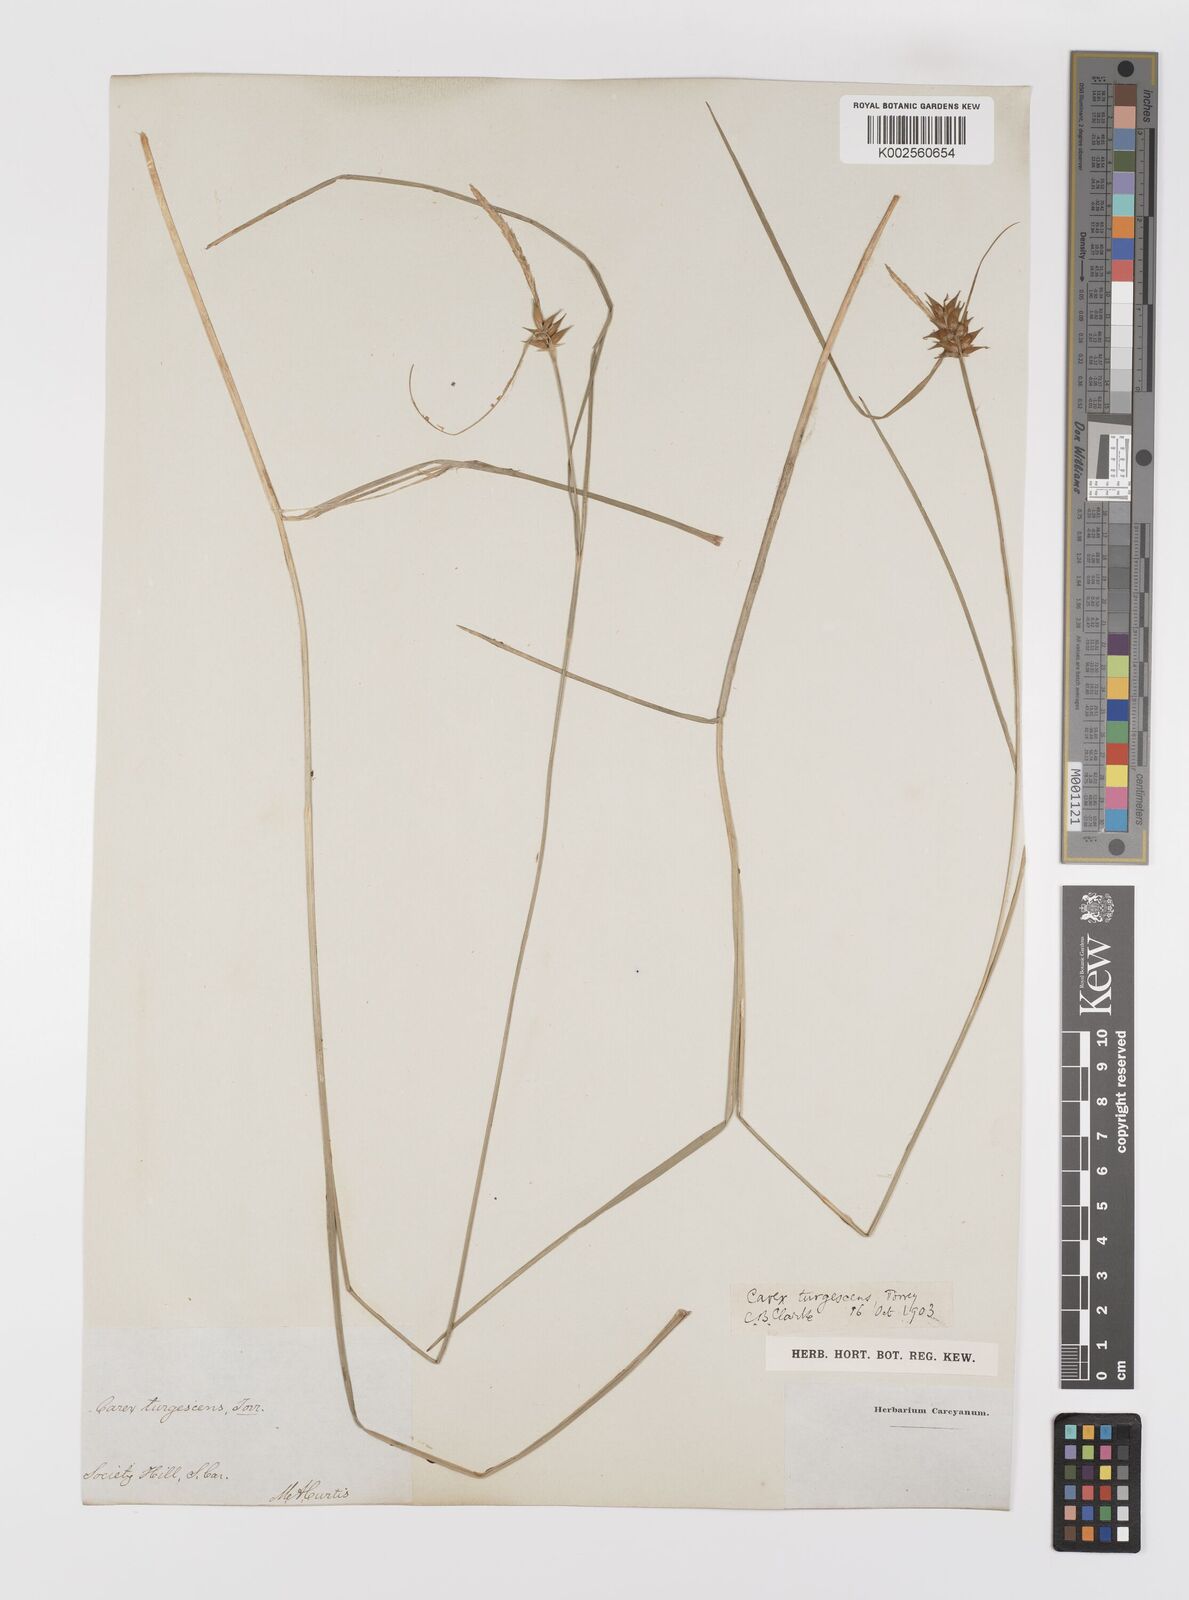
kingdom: Plantae
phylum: Tracheophyta
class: Liliopsida
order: Poales
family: Cyperaceae
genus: Carex
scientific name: Carex turgescens
